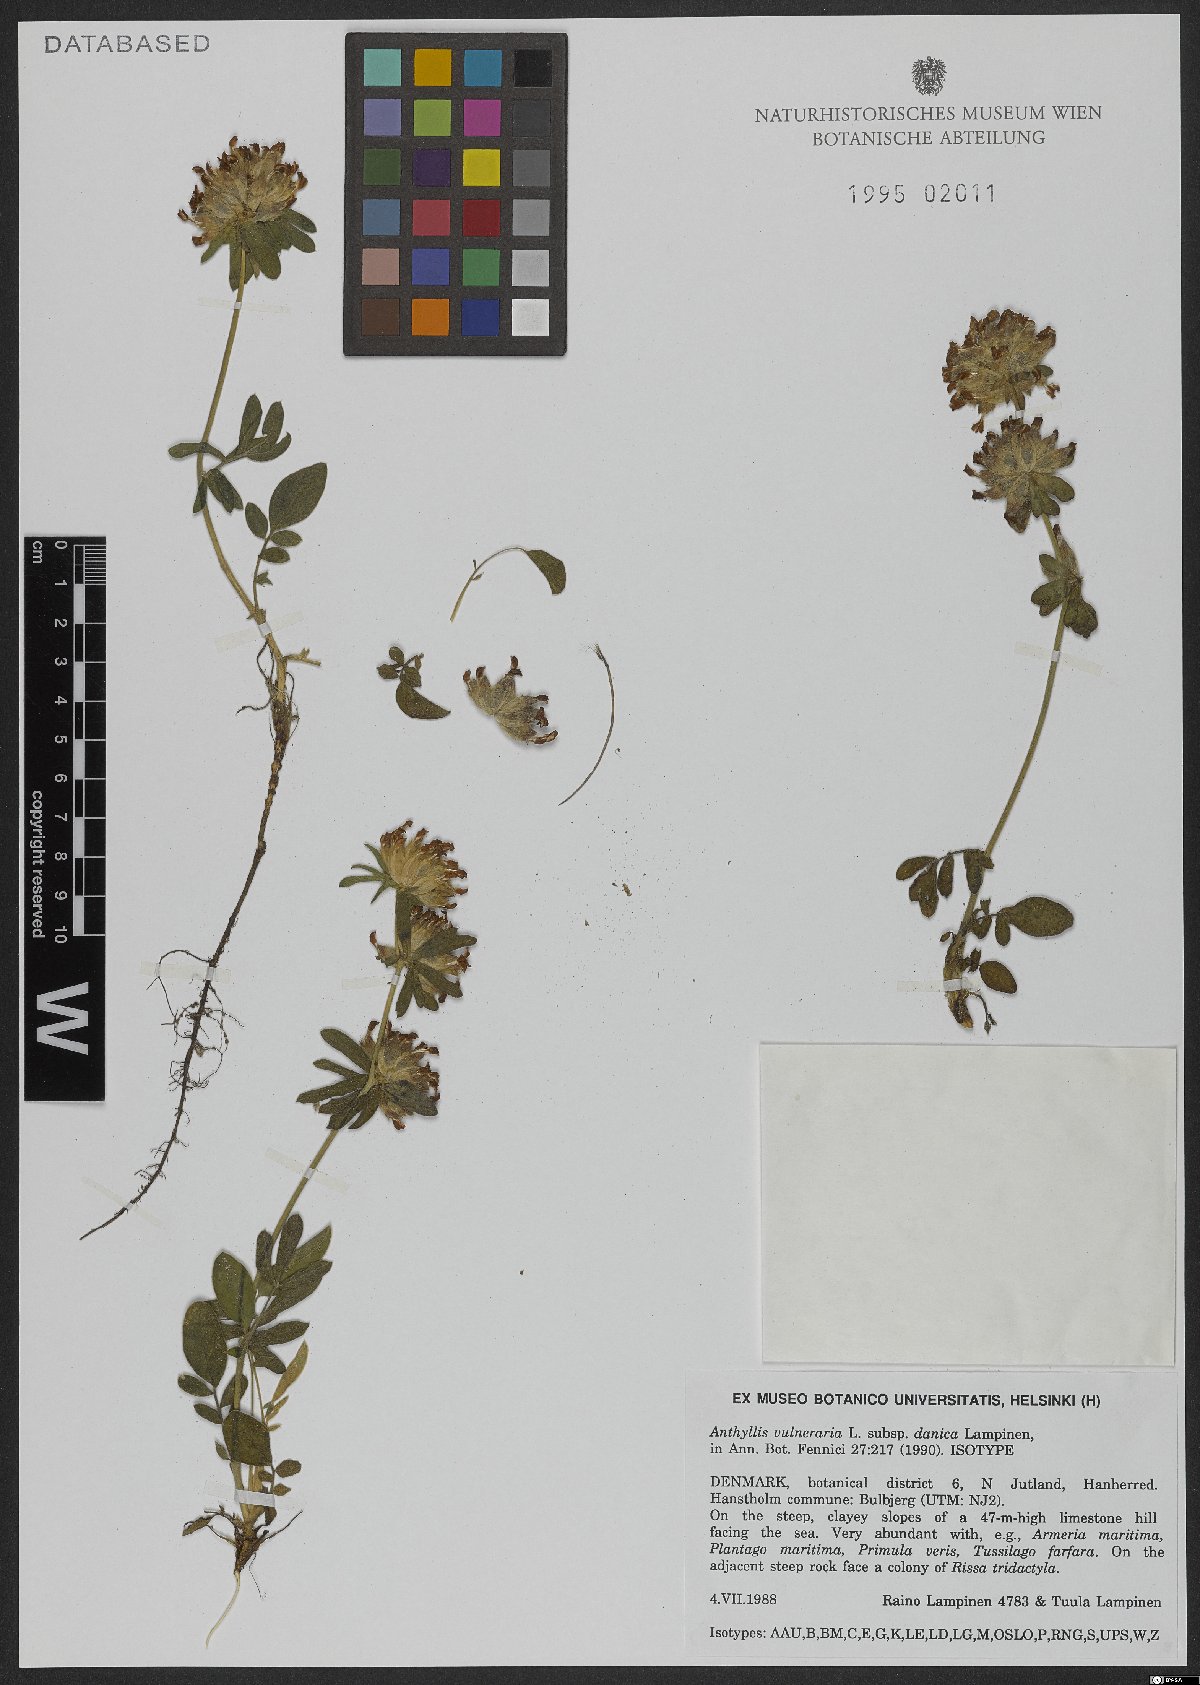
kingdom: Plantae
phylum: Tracheophyta
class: Magnoliopsida
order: Fabales
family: Fabaceae
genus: Anthyllis
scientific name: Anthyllis vulneraria
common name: Kidney vetch
